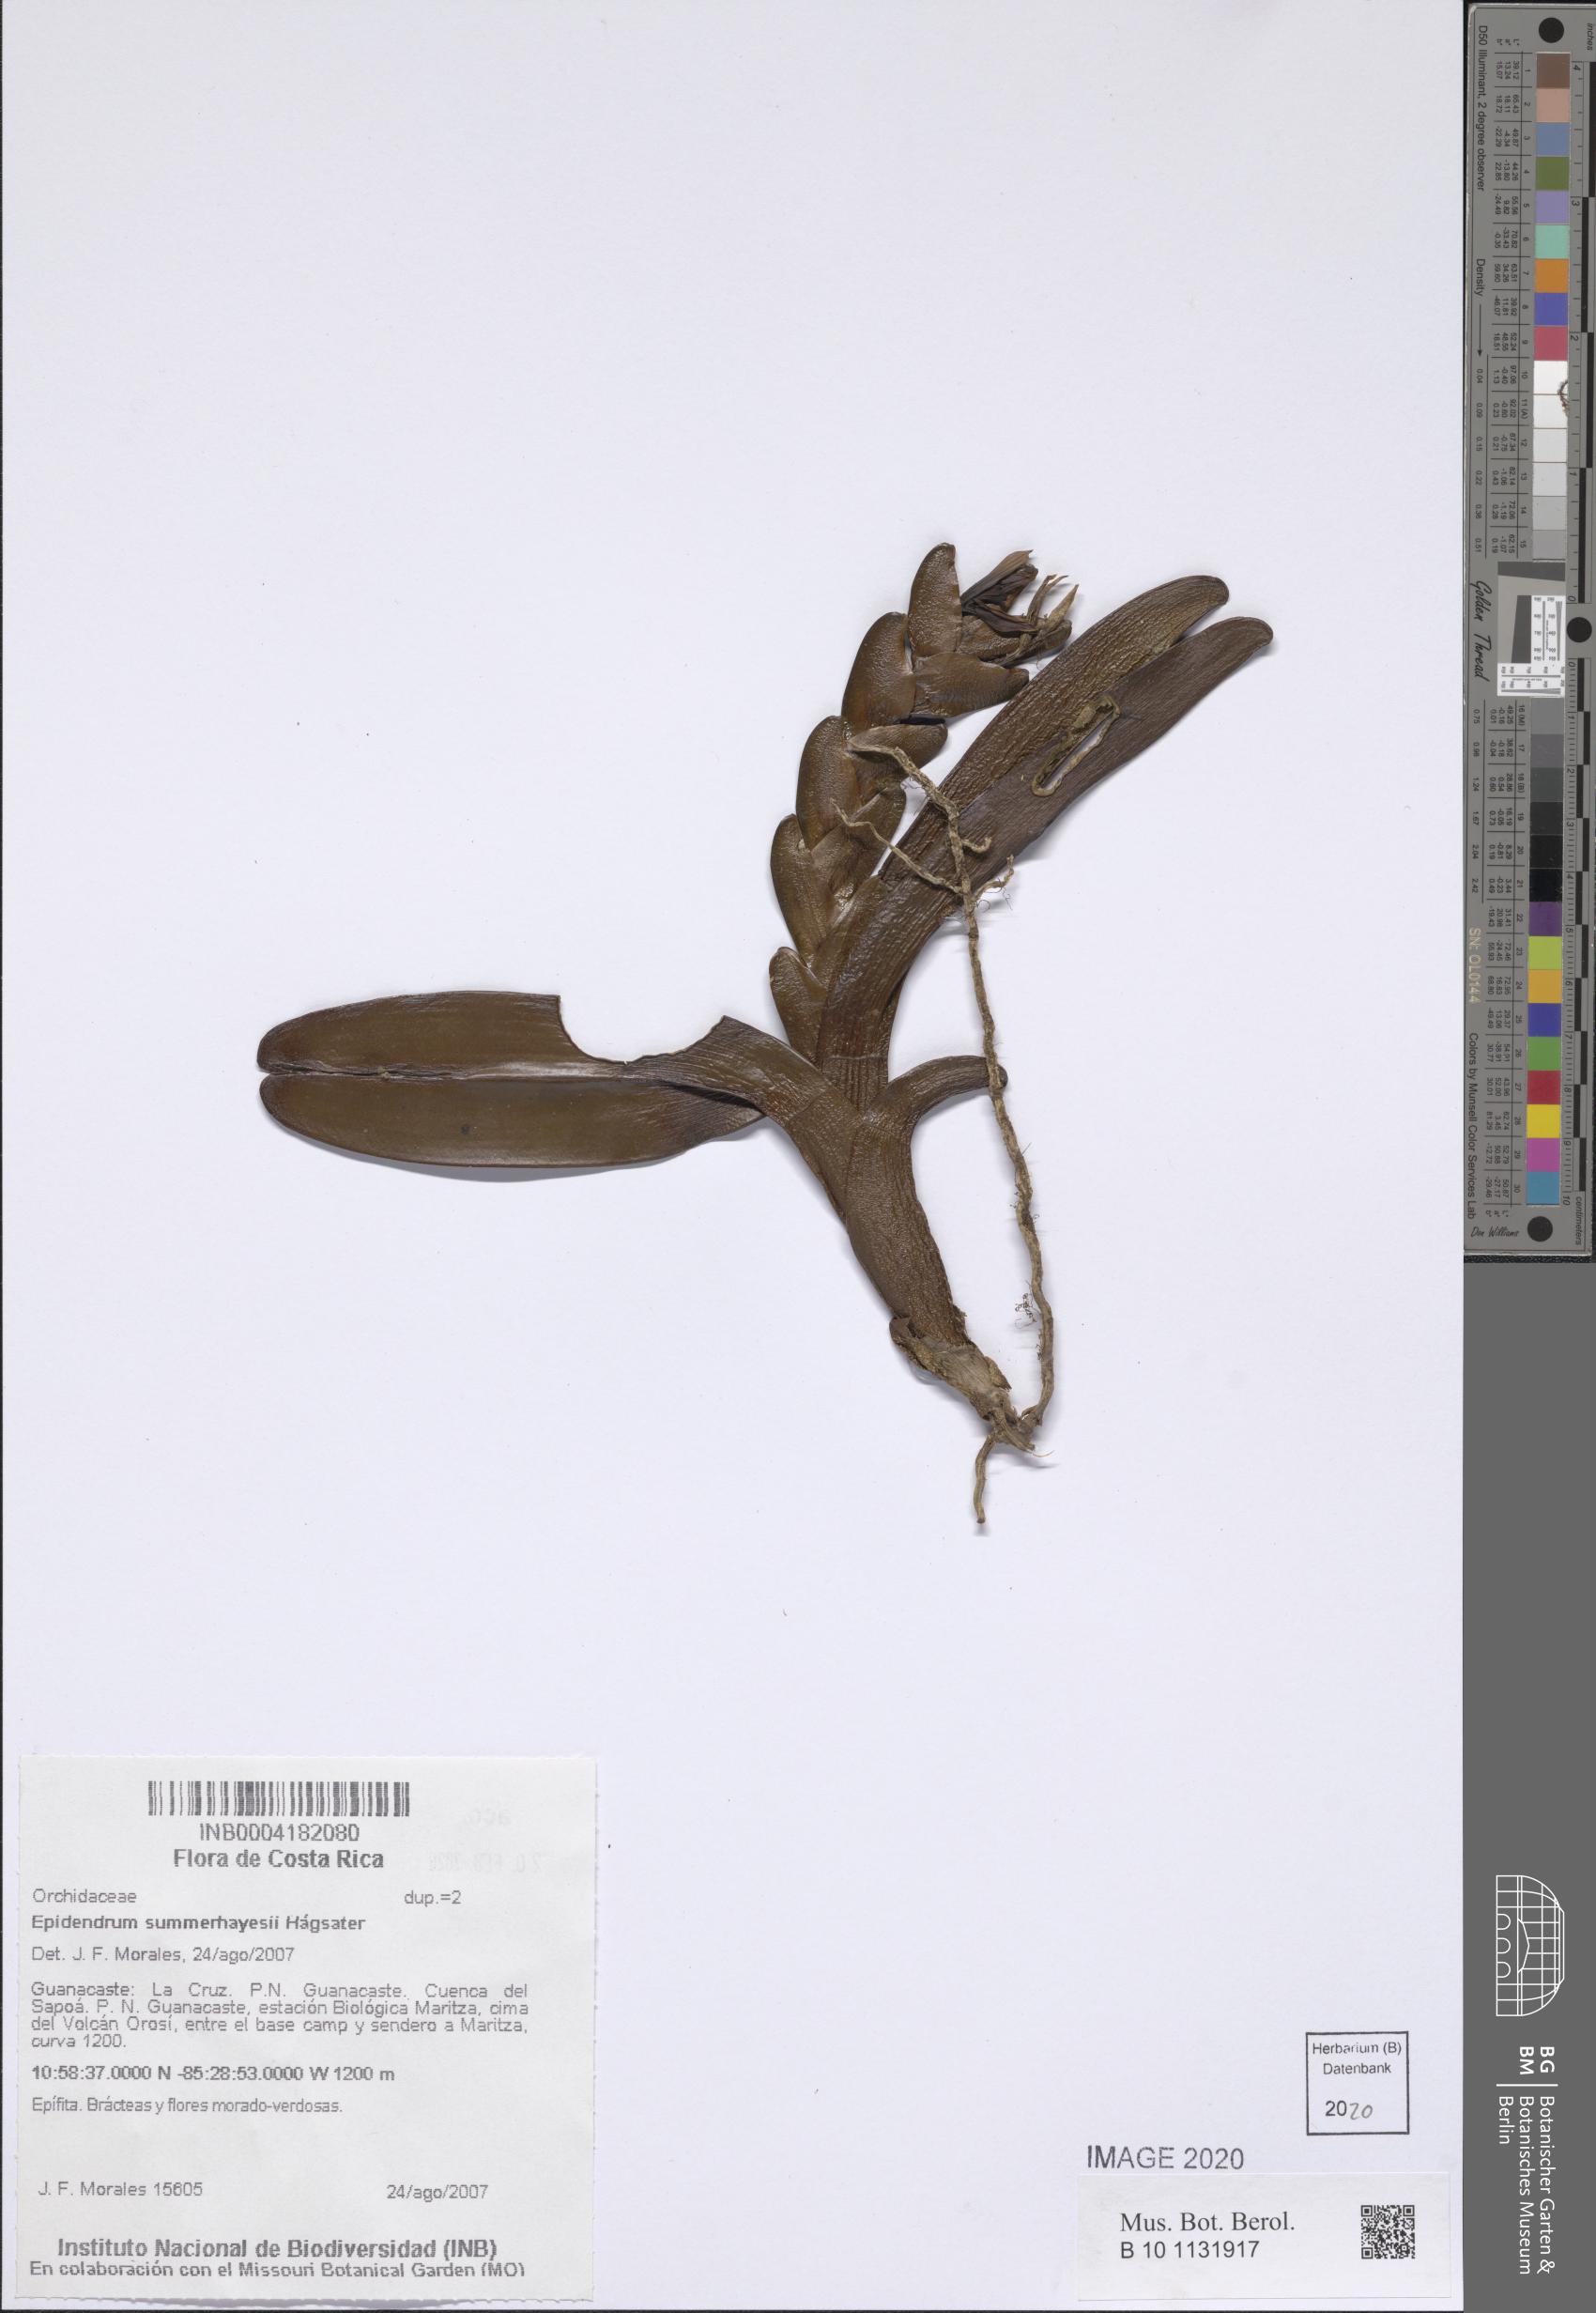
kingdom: Plantae
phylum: Tracheophyta
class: Liliopsida
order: Asparagales
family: Orchidaceae
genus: Epidendrum
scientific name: Epidendrum summerhayesii
